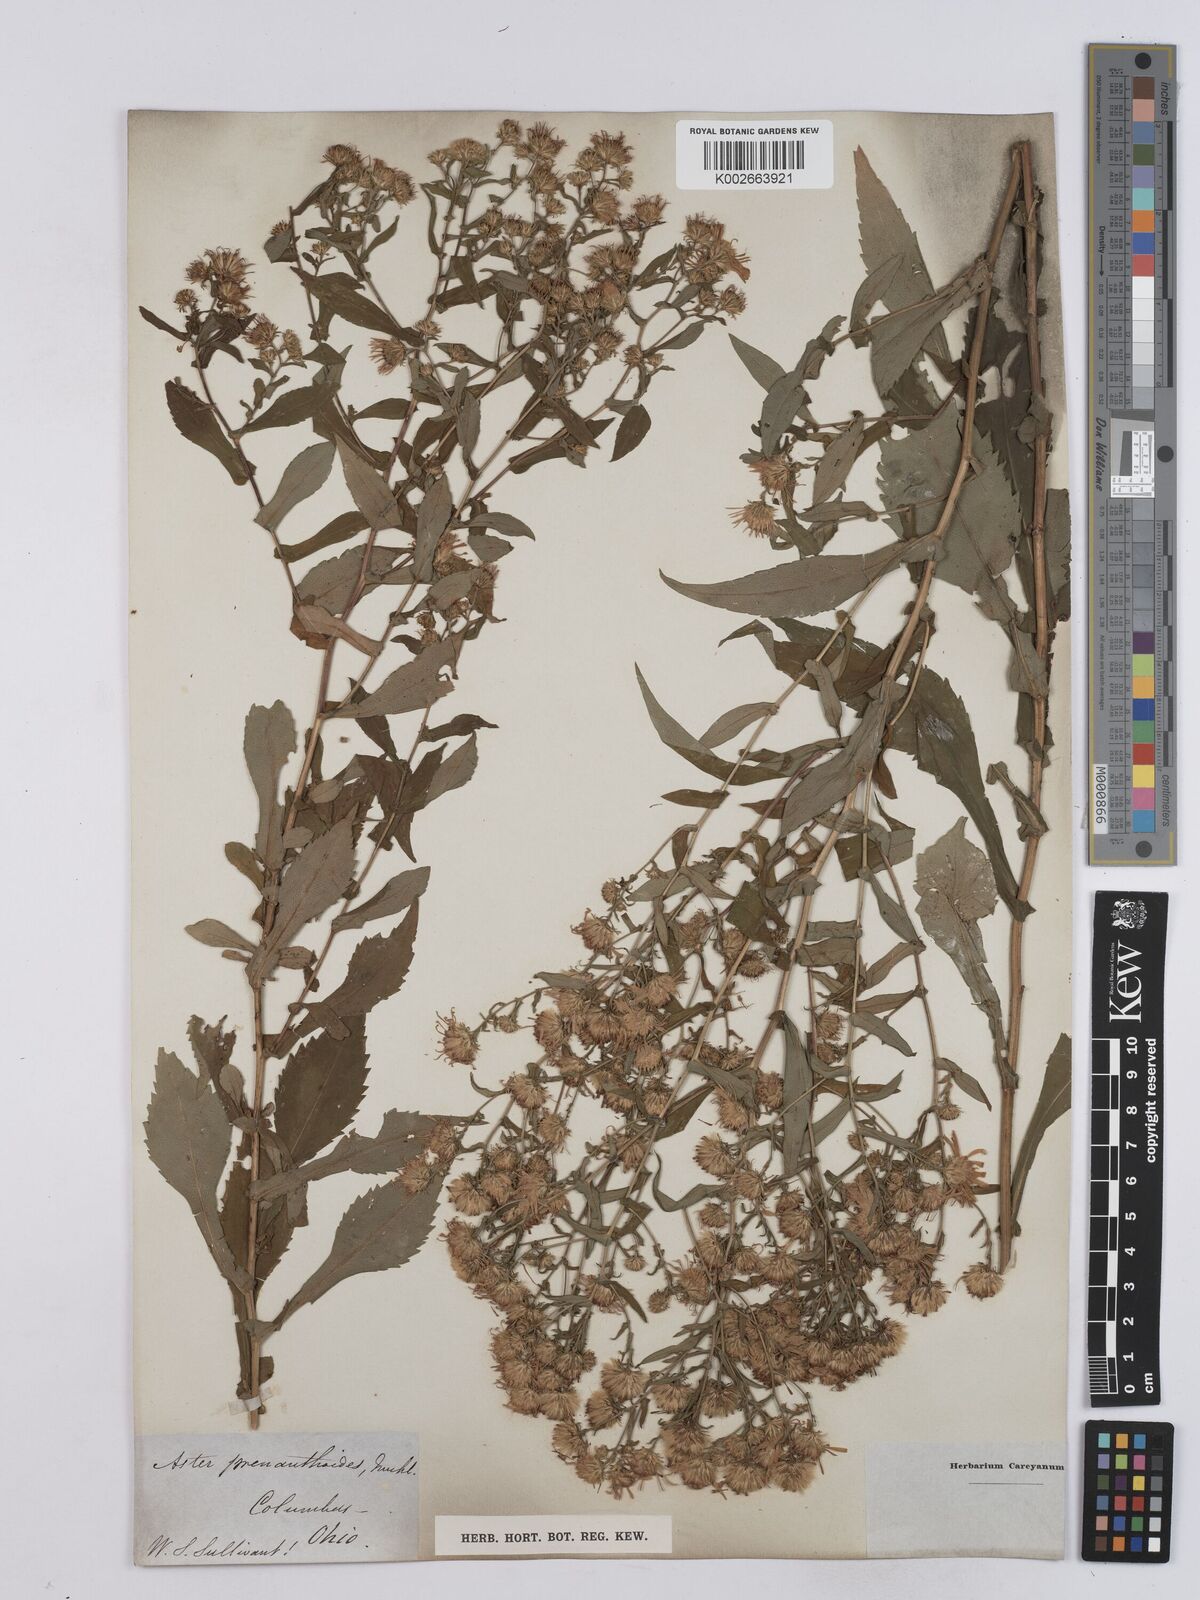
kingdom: Plantae
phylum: Tracheophyta
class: Magnoliopsida
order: Asterales
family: Asteraceae
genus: Symphyotrichum
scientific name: Symphyotrichum prenanthoides
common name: Crooked-stem aster
